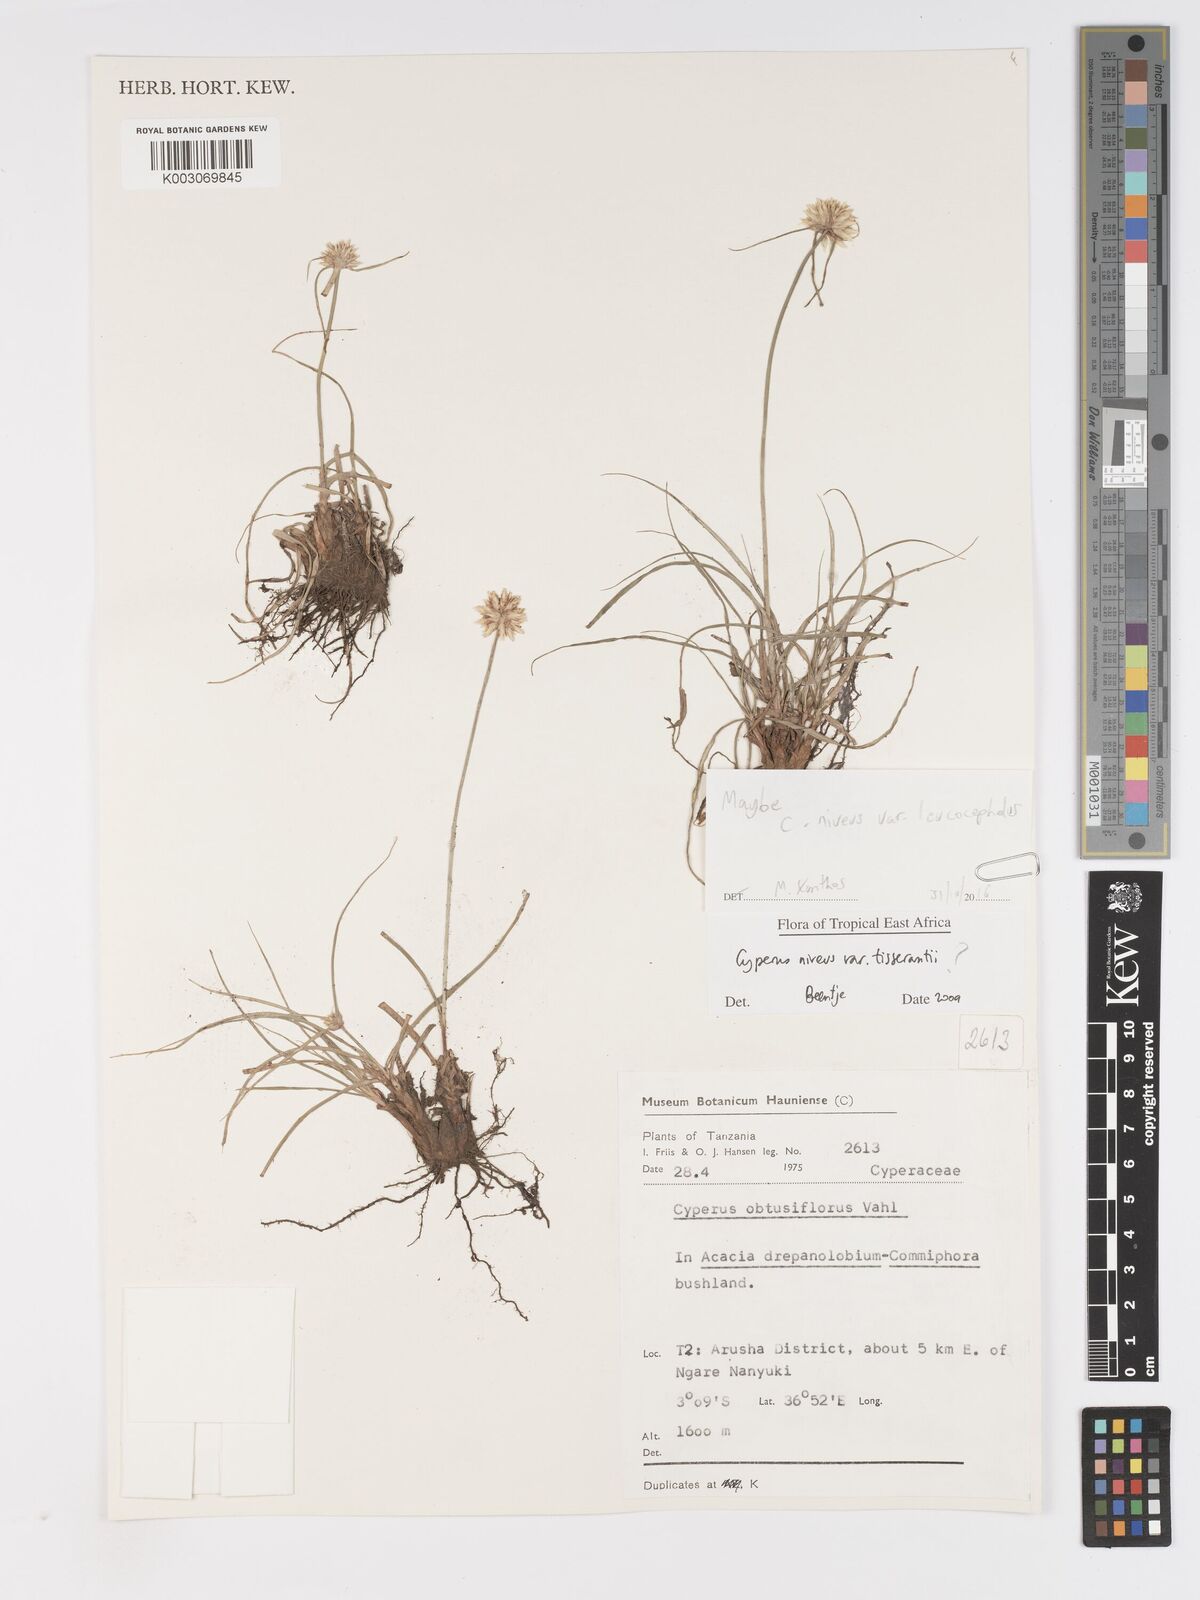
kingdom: Plantae
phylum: Tracheophyta
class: Liliopsida
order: Poales
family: Cyperaceae
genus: Cyperus
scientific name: Cyperus niveus
